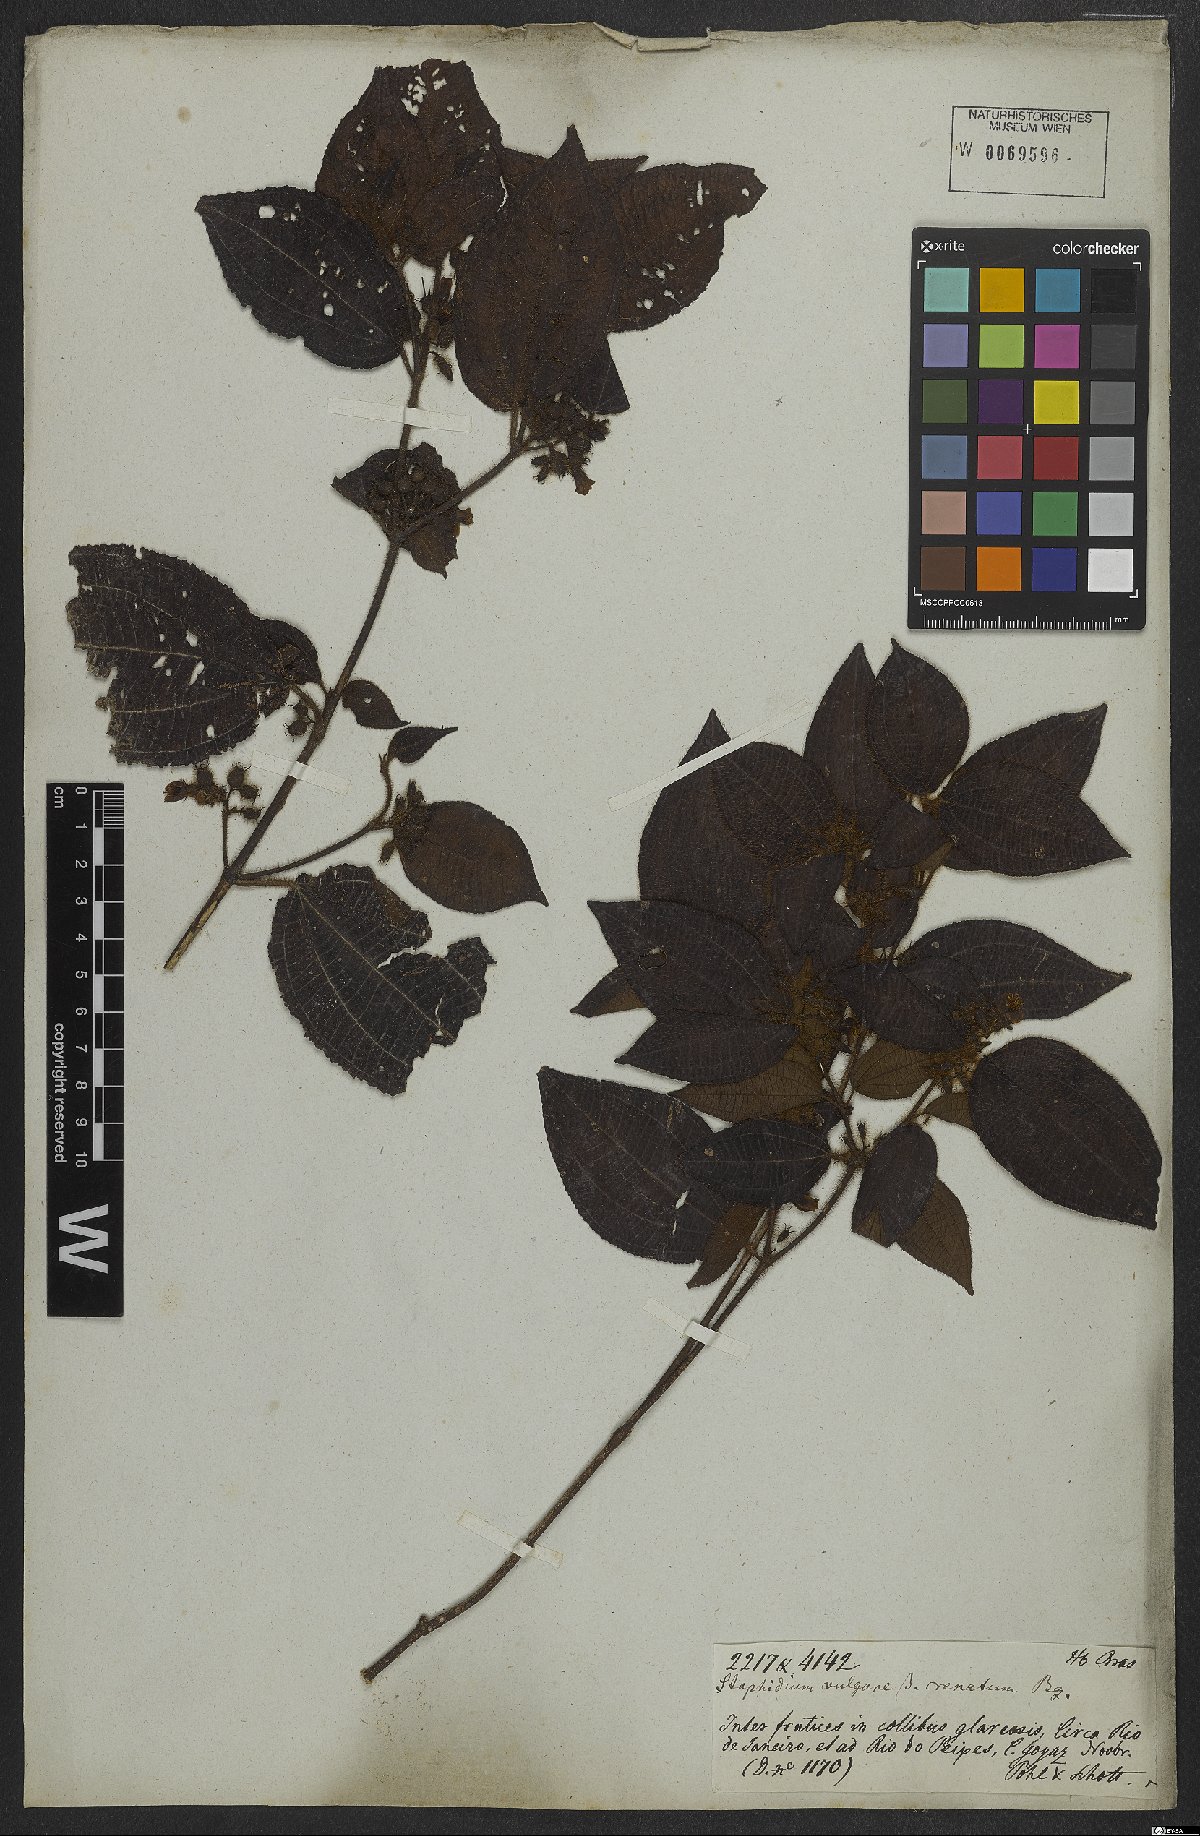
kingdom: Plantae
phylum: Tracheophyta
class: Magnoliopsida
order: Myrtales
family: Melastomataceae
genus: Miconia
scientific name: Miconia crenata
